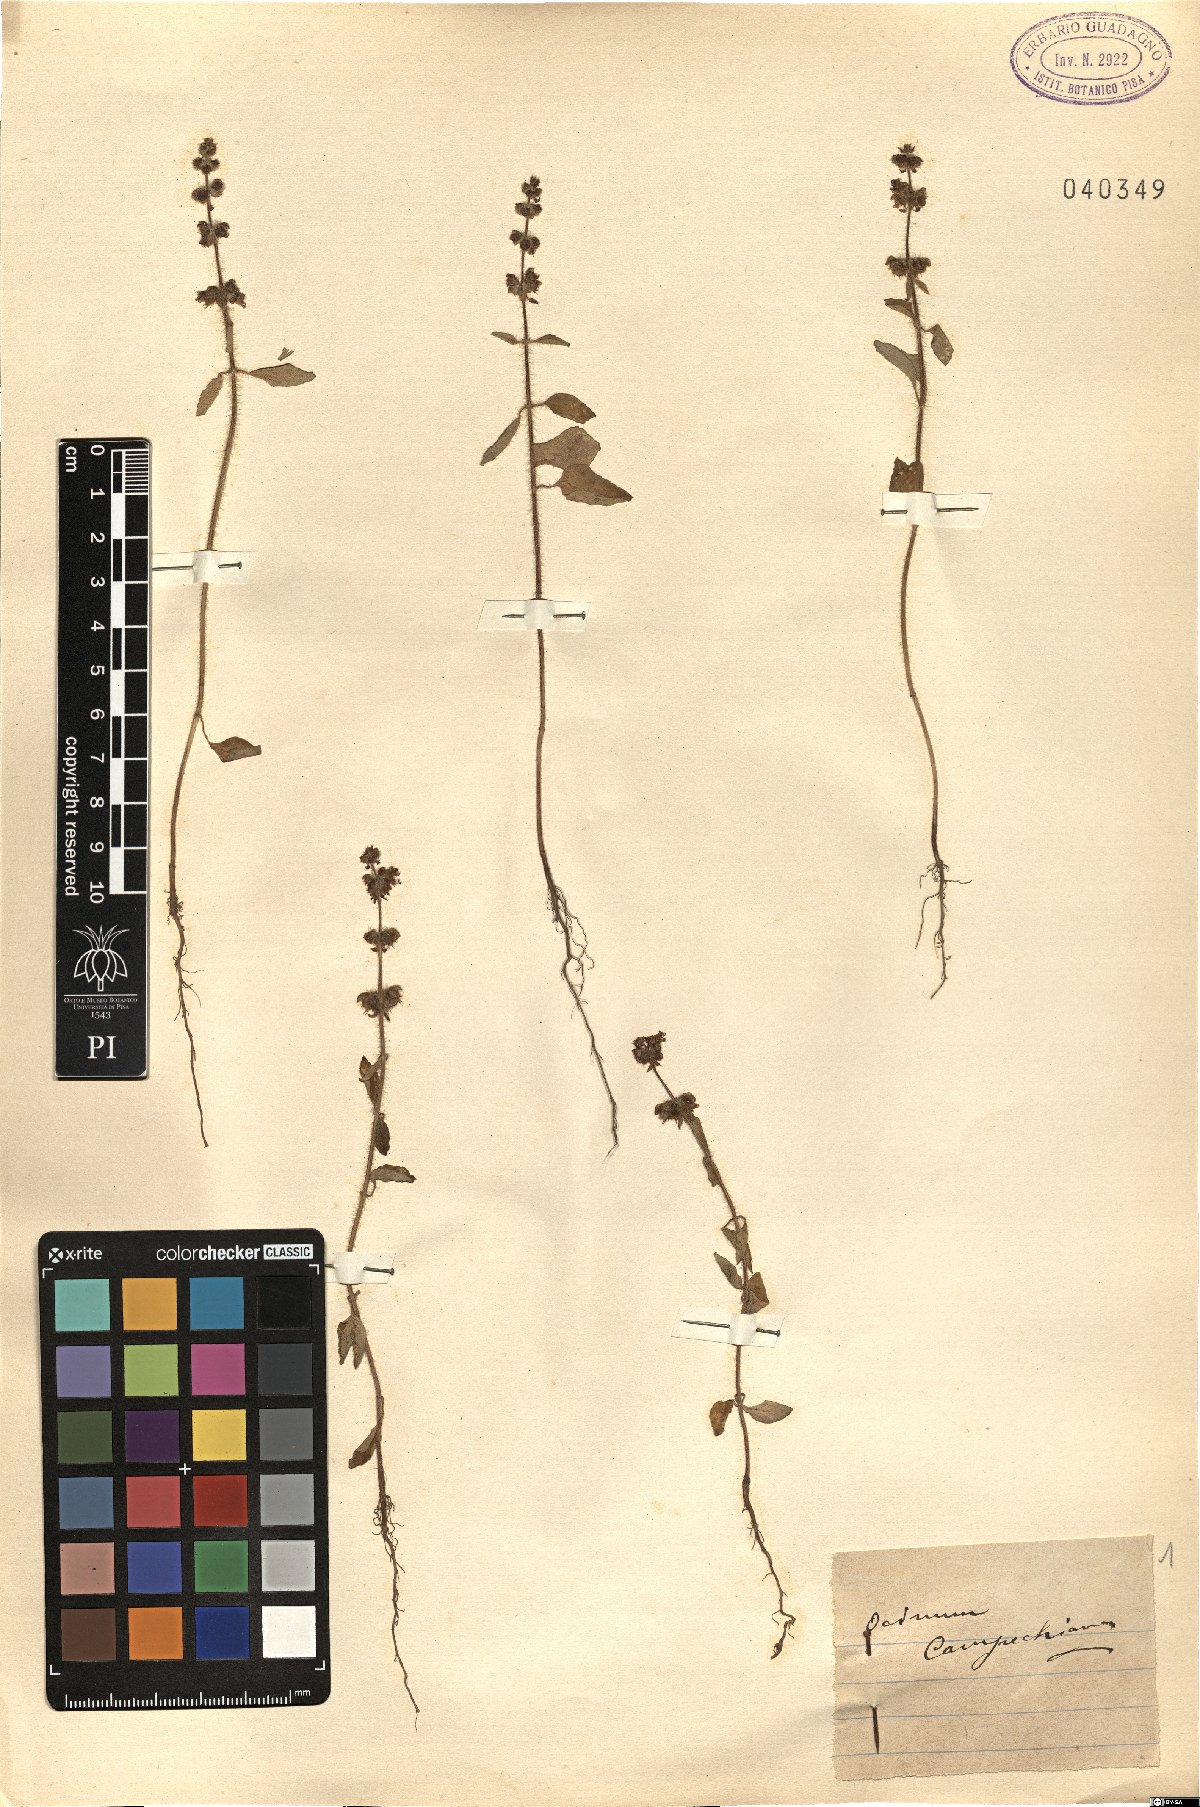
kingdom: Plantae
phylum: Tracheophyta
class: Magnoliopsida
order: Lamiales
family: Lamiaceae
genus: Ocimum
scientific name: Ocimum campechianum
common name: Mosquito basil
